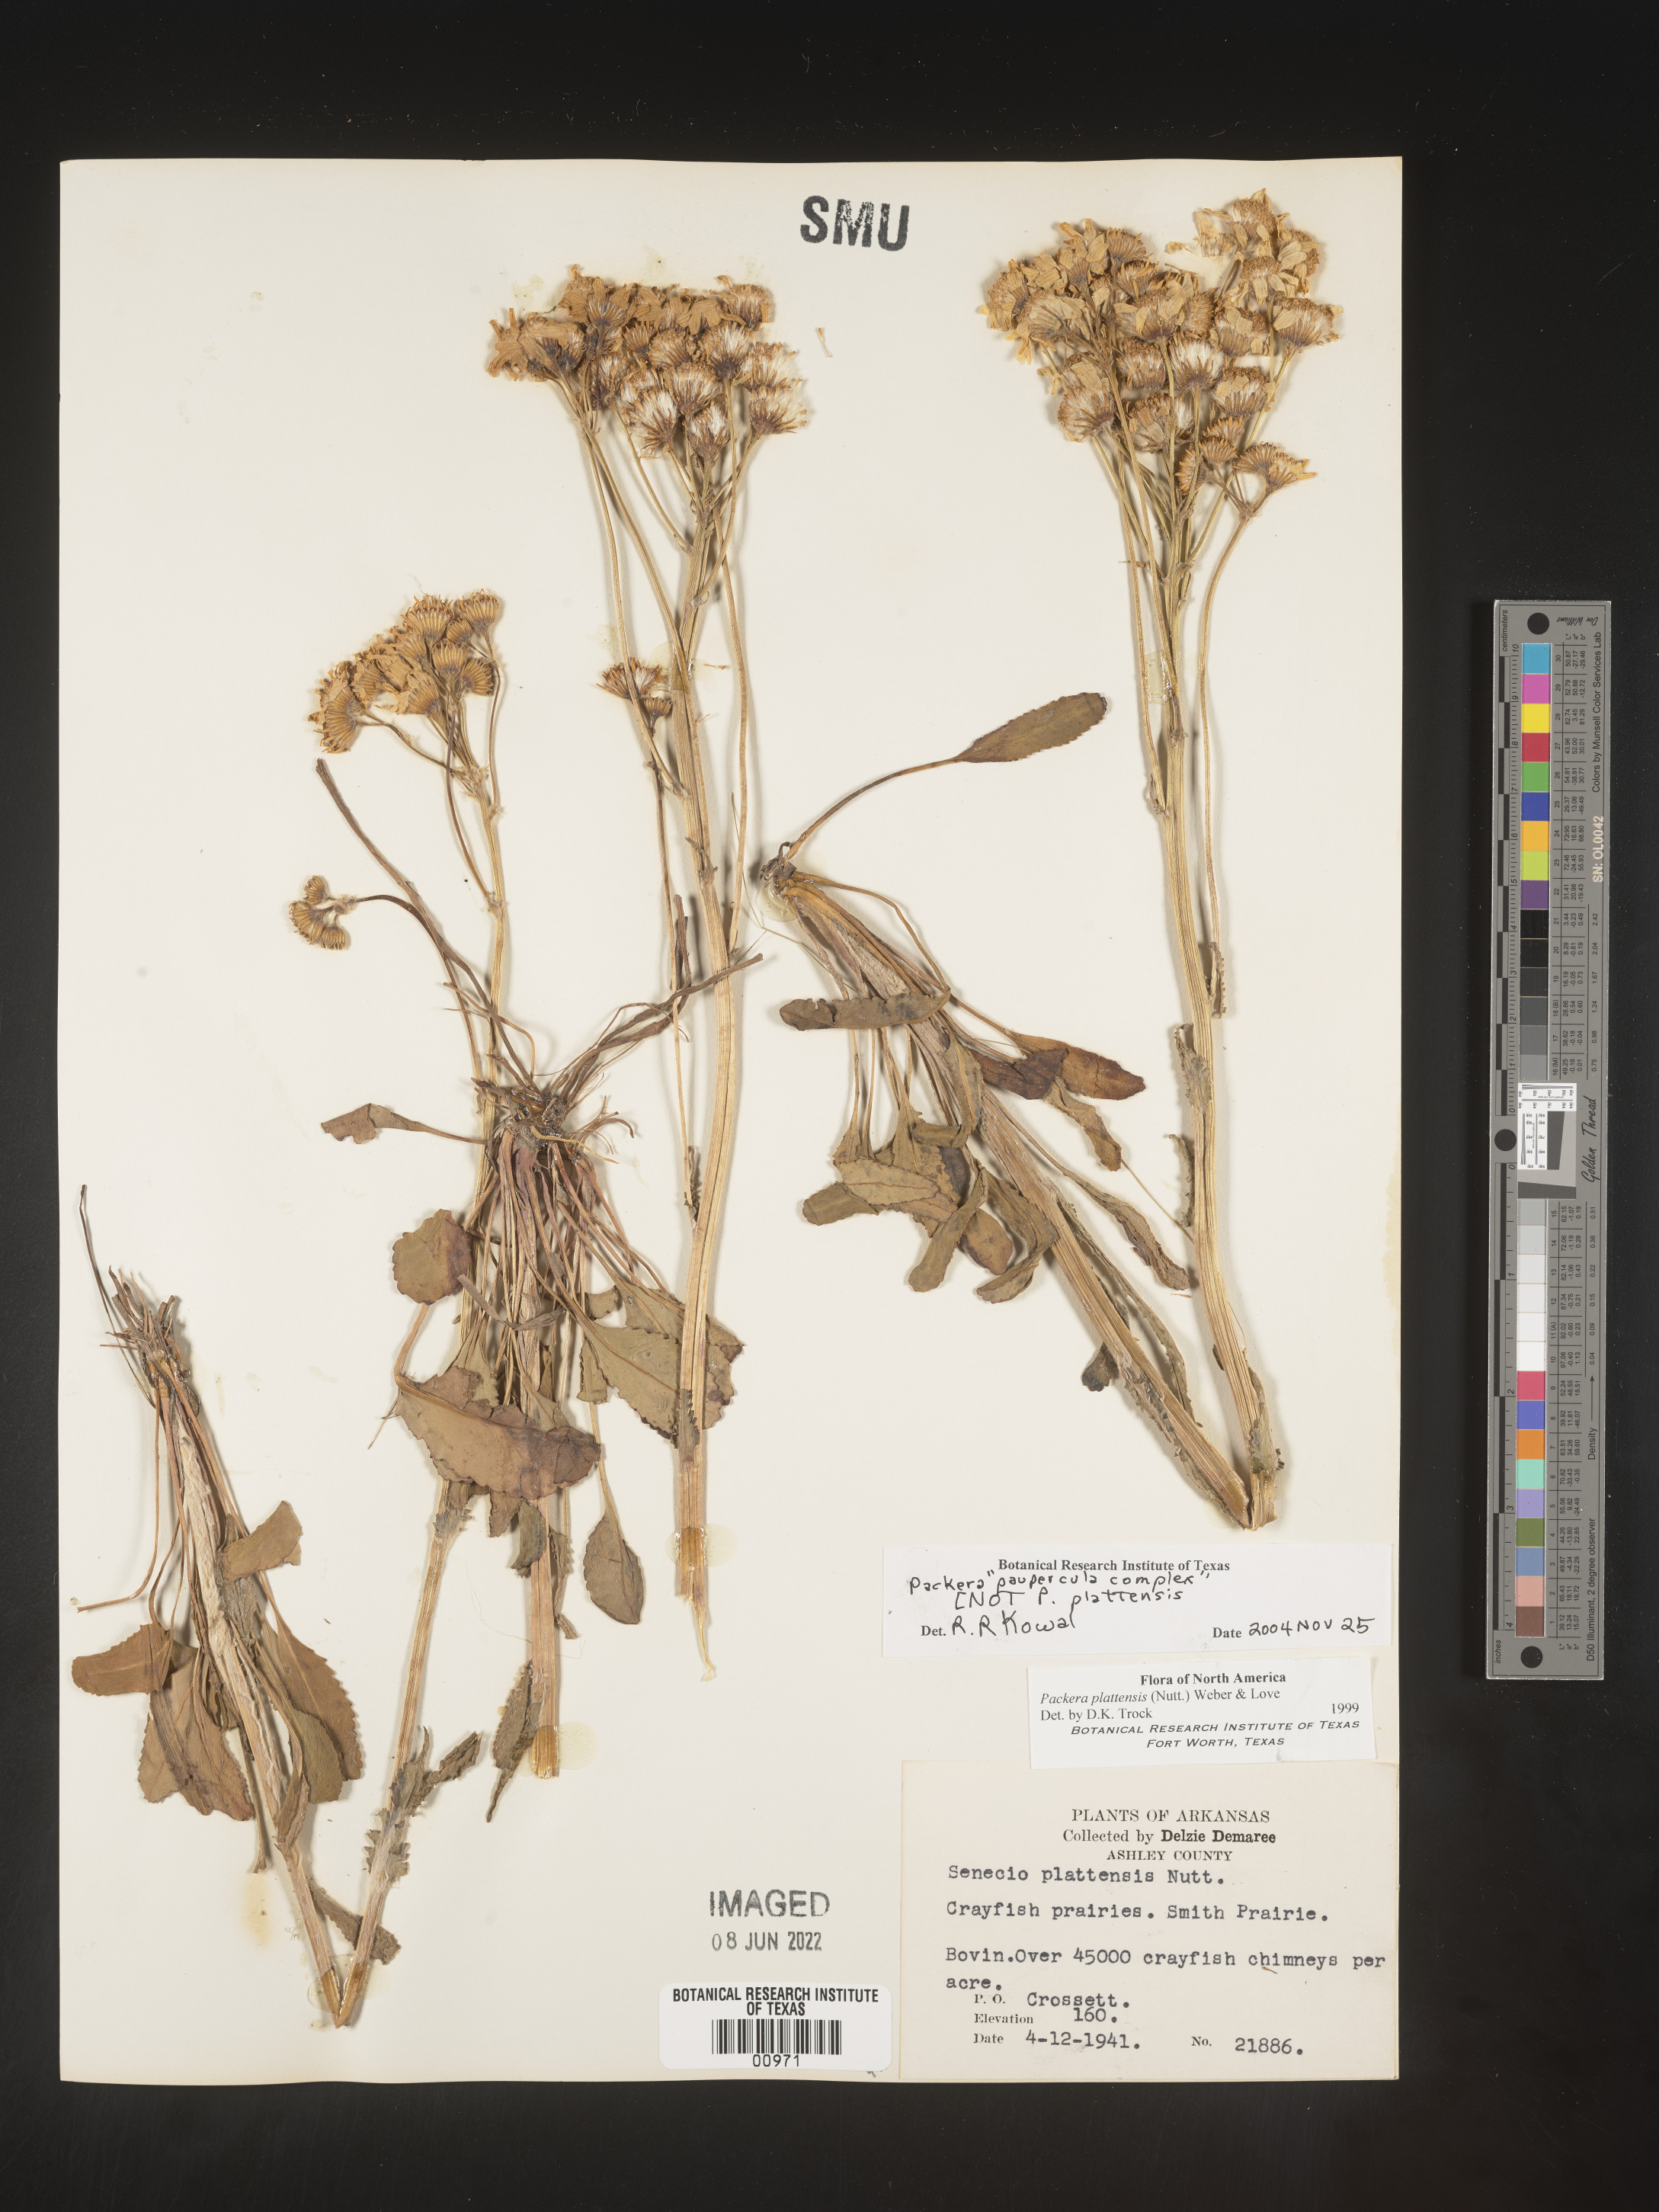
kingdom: Plantae
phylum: Tracheophyta
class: Magnoliopsida
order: Asterales
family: Asteraceae
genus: Packera
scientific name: Packera paupercula
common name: Balsam groundsel
